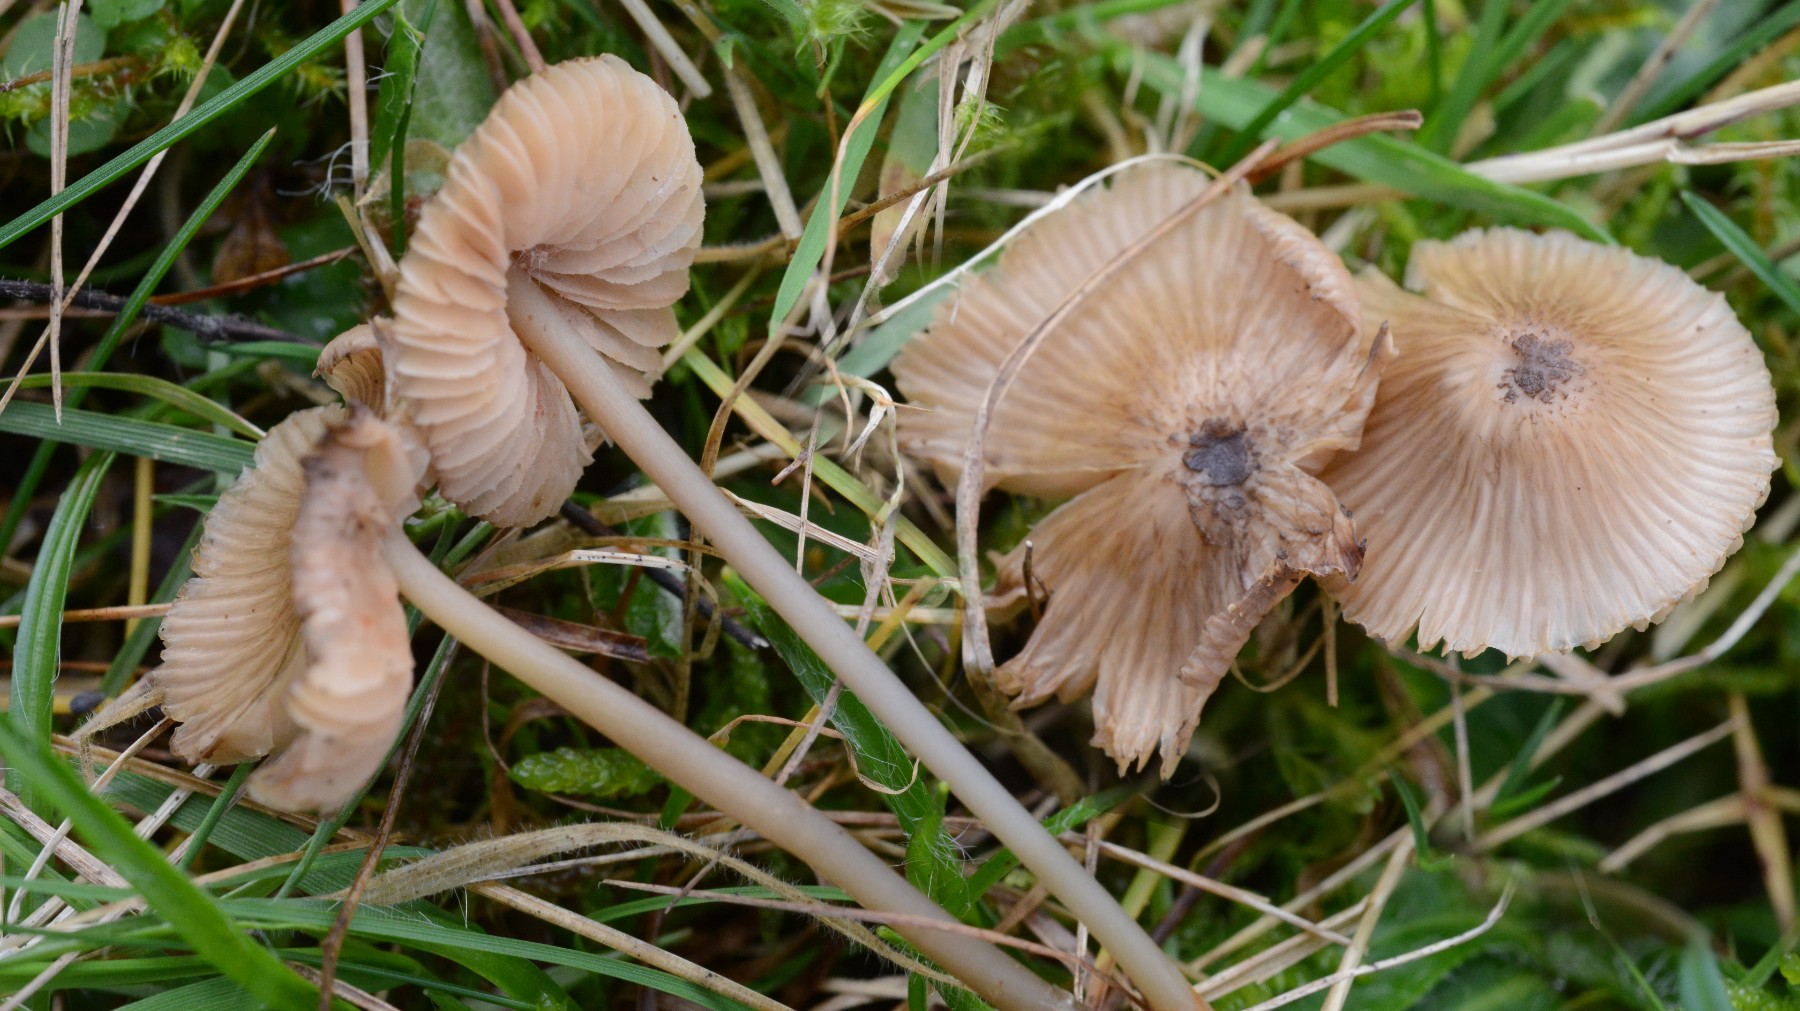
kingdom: Fungi
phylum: Basidiomycota
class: Agaricomycetes
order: Agaricales
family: Entolomataceae
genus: Entoloma
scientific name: Entoloma exile
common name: rødplettet rødblad
